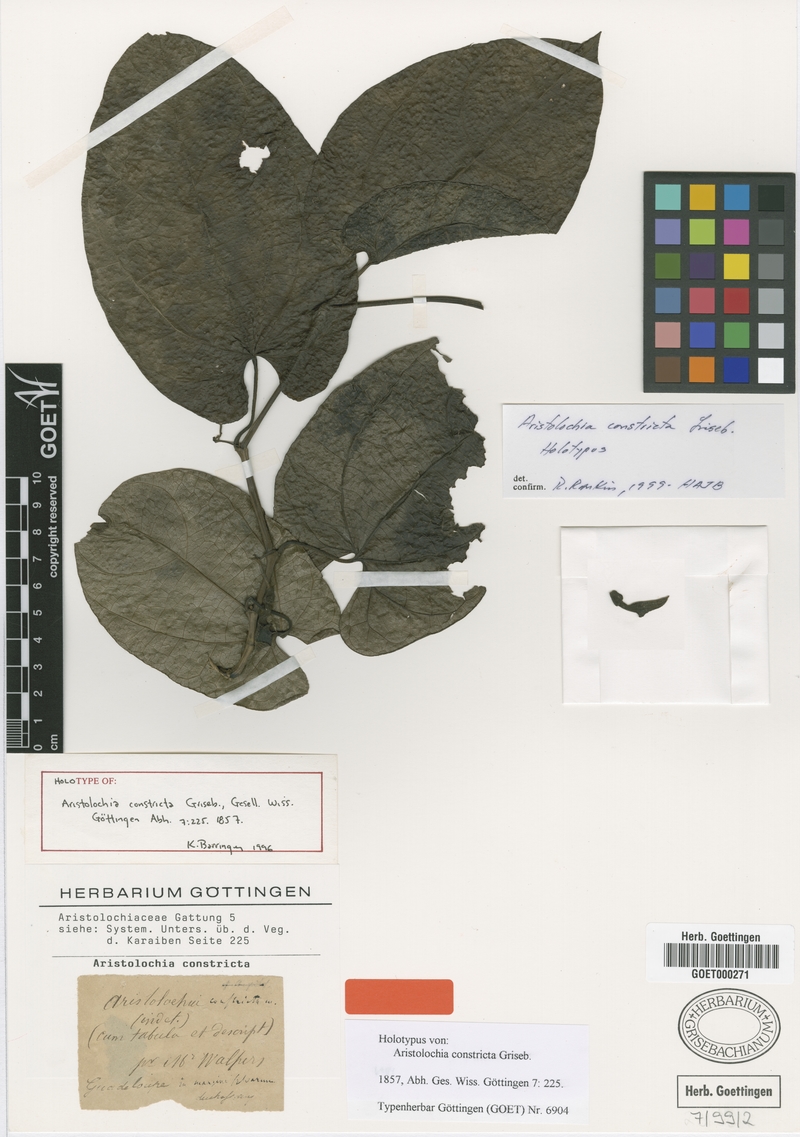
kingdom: Plantae
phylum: Tracheophyta
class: Magnoliopsida
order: Piperales
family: Aristolochiaceae
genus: Aristolochia
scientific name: Aristolochia constricta
